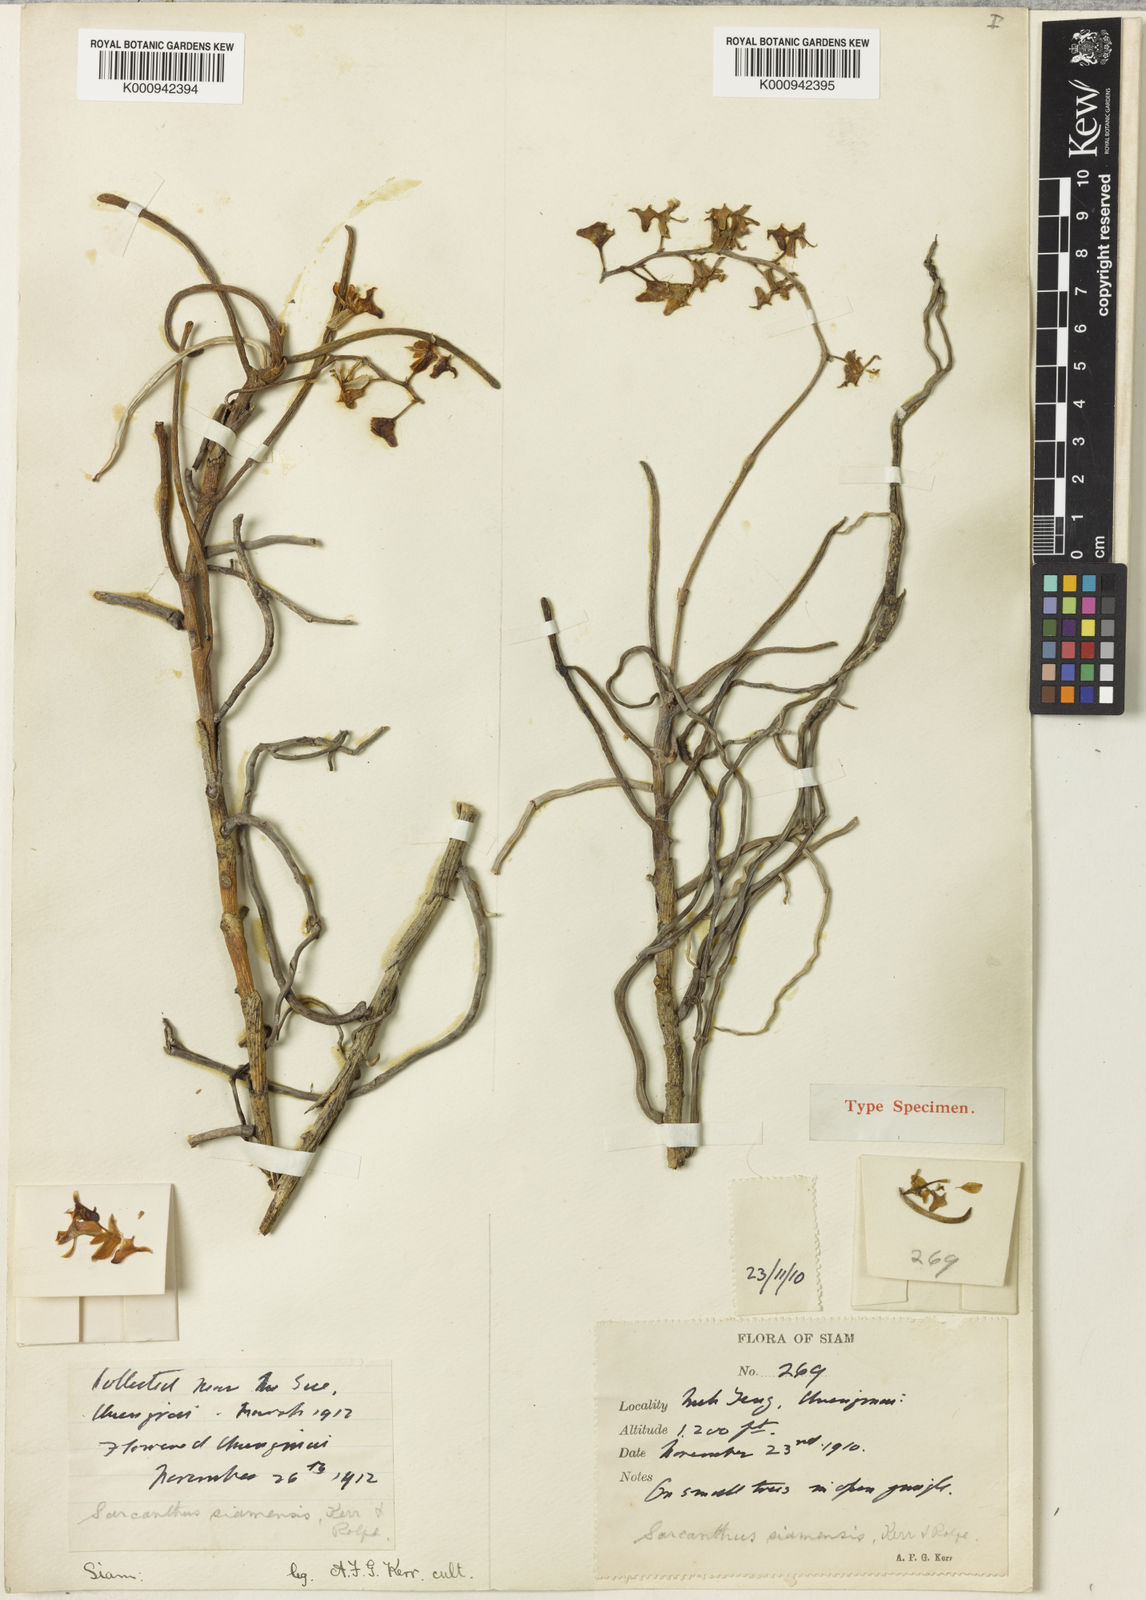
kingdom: Plantae
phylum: Tracheophyta
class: Liliopsida
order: Asparagales
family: Orchidaceae
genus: Cleisostoma
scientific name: Cleisostoma simondii
